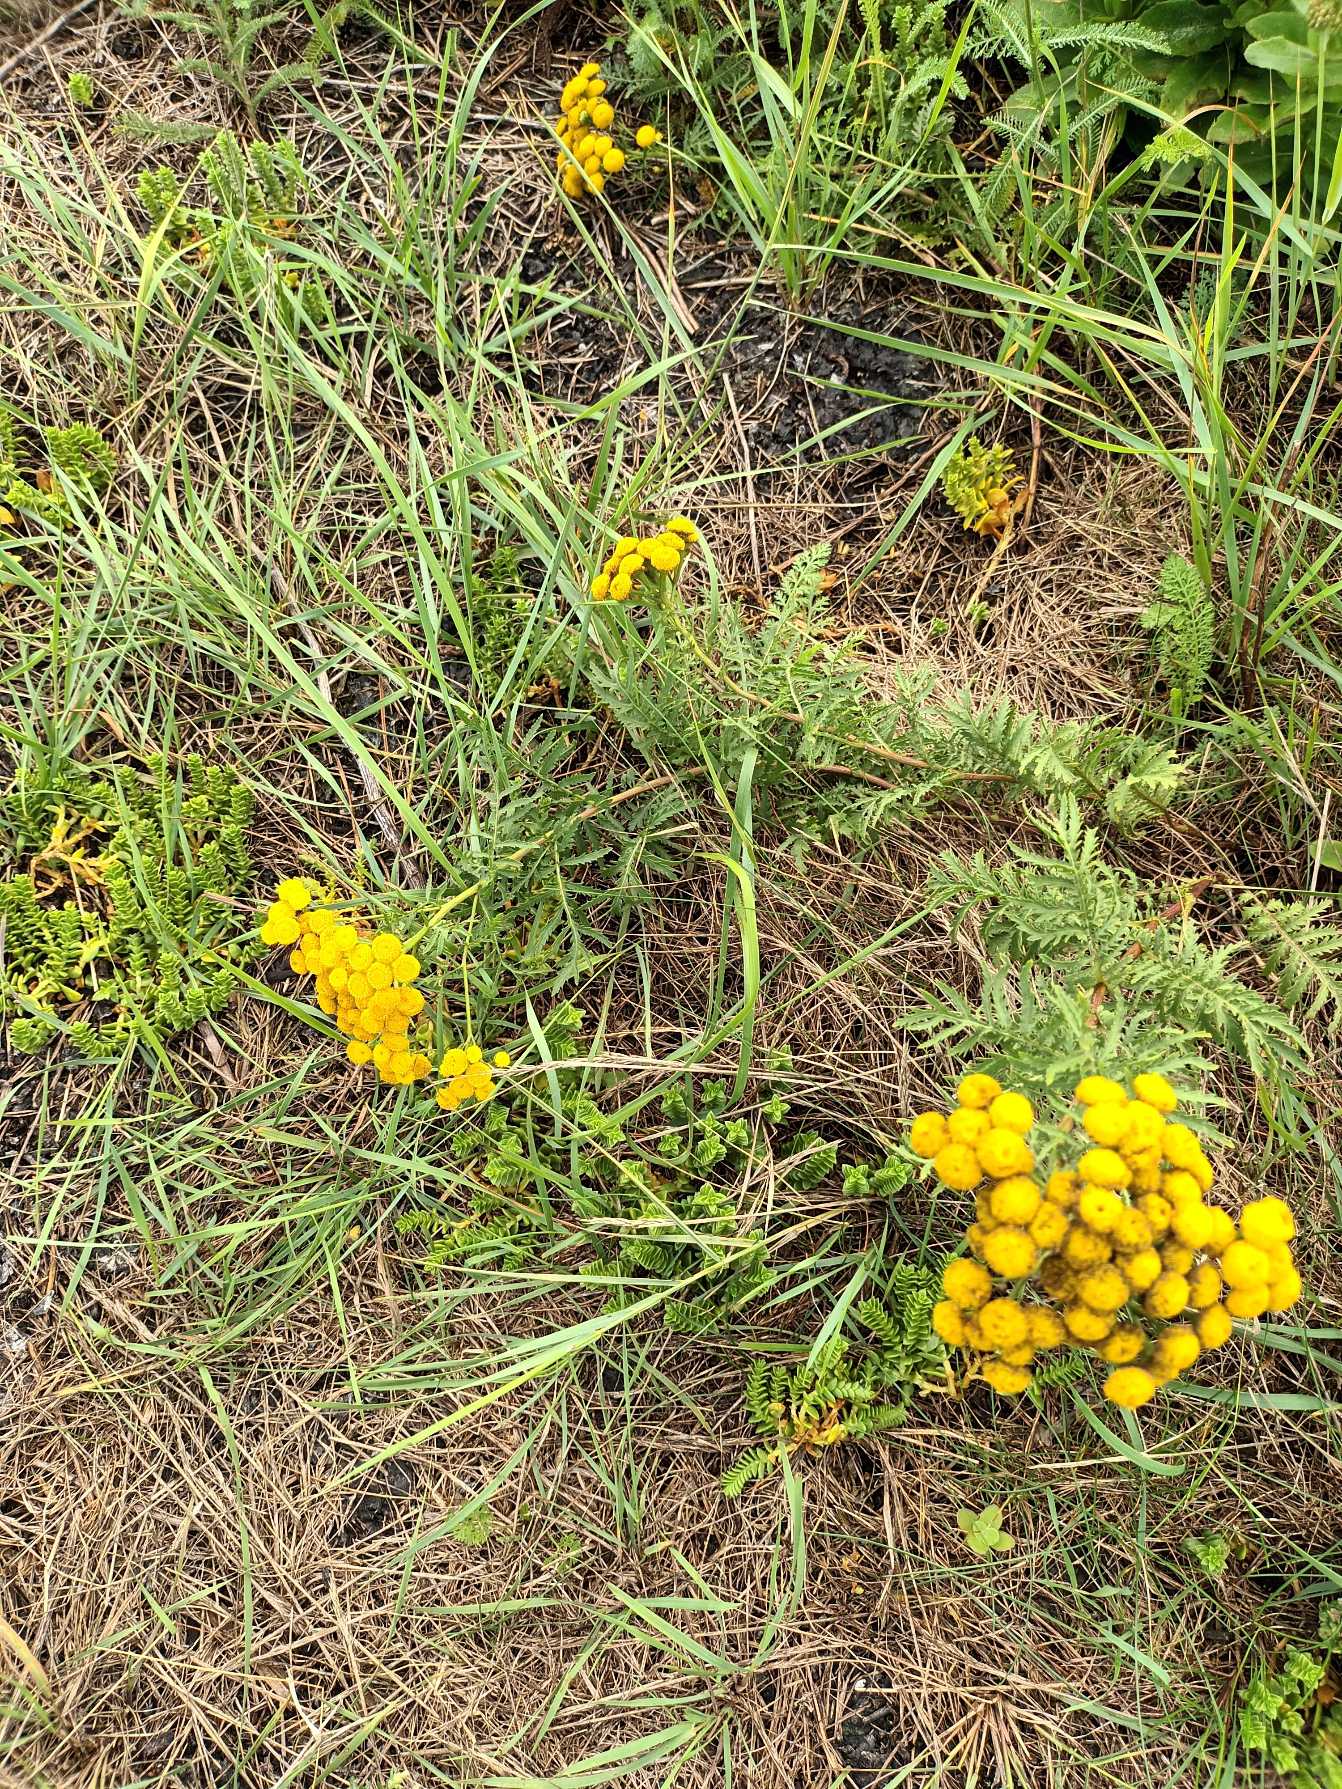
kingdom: Plantae
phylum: Tracheophyta
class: Magnoliopsida
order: Asterales
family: Asteraceae
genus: Tanacetum
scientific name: Tanacetum vulgare
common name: Rejnfan
